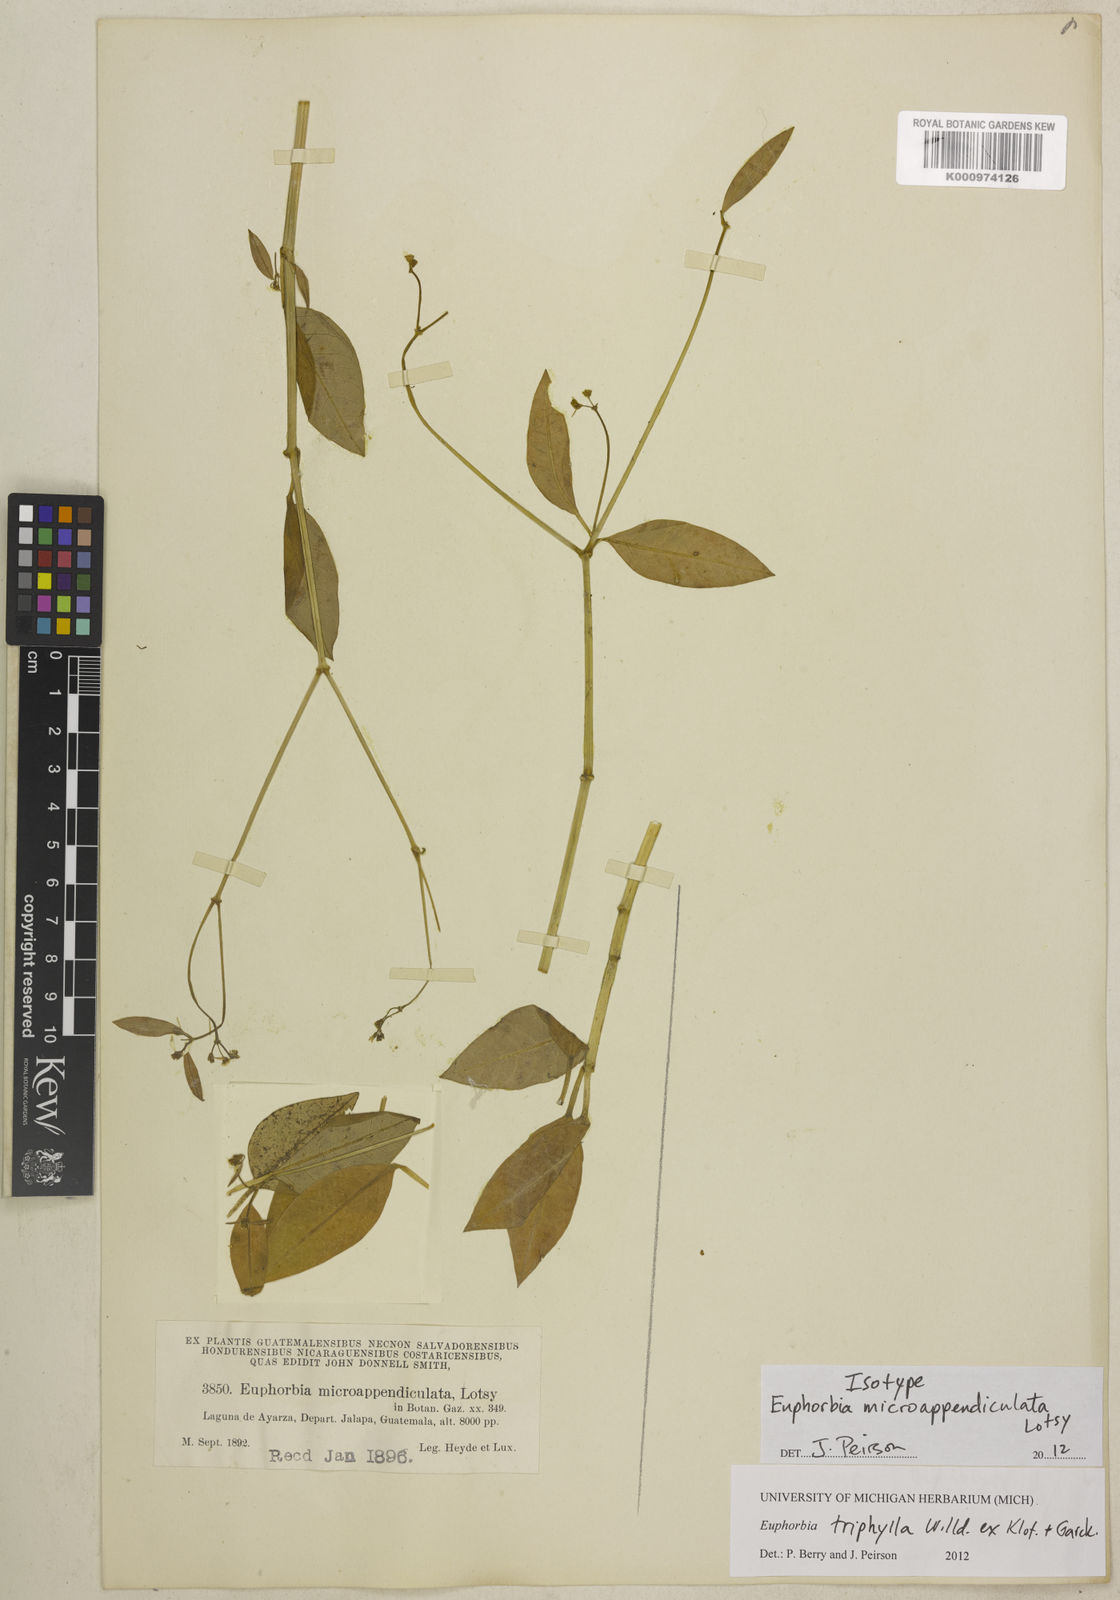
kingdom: Plantae
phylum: Tracheophyta
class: Magnoliopsida
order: Malpighiales
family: Euphorbiaceae
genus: Euphorbia
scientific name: Euphorbia triphylla
